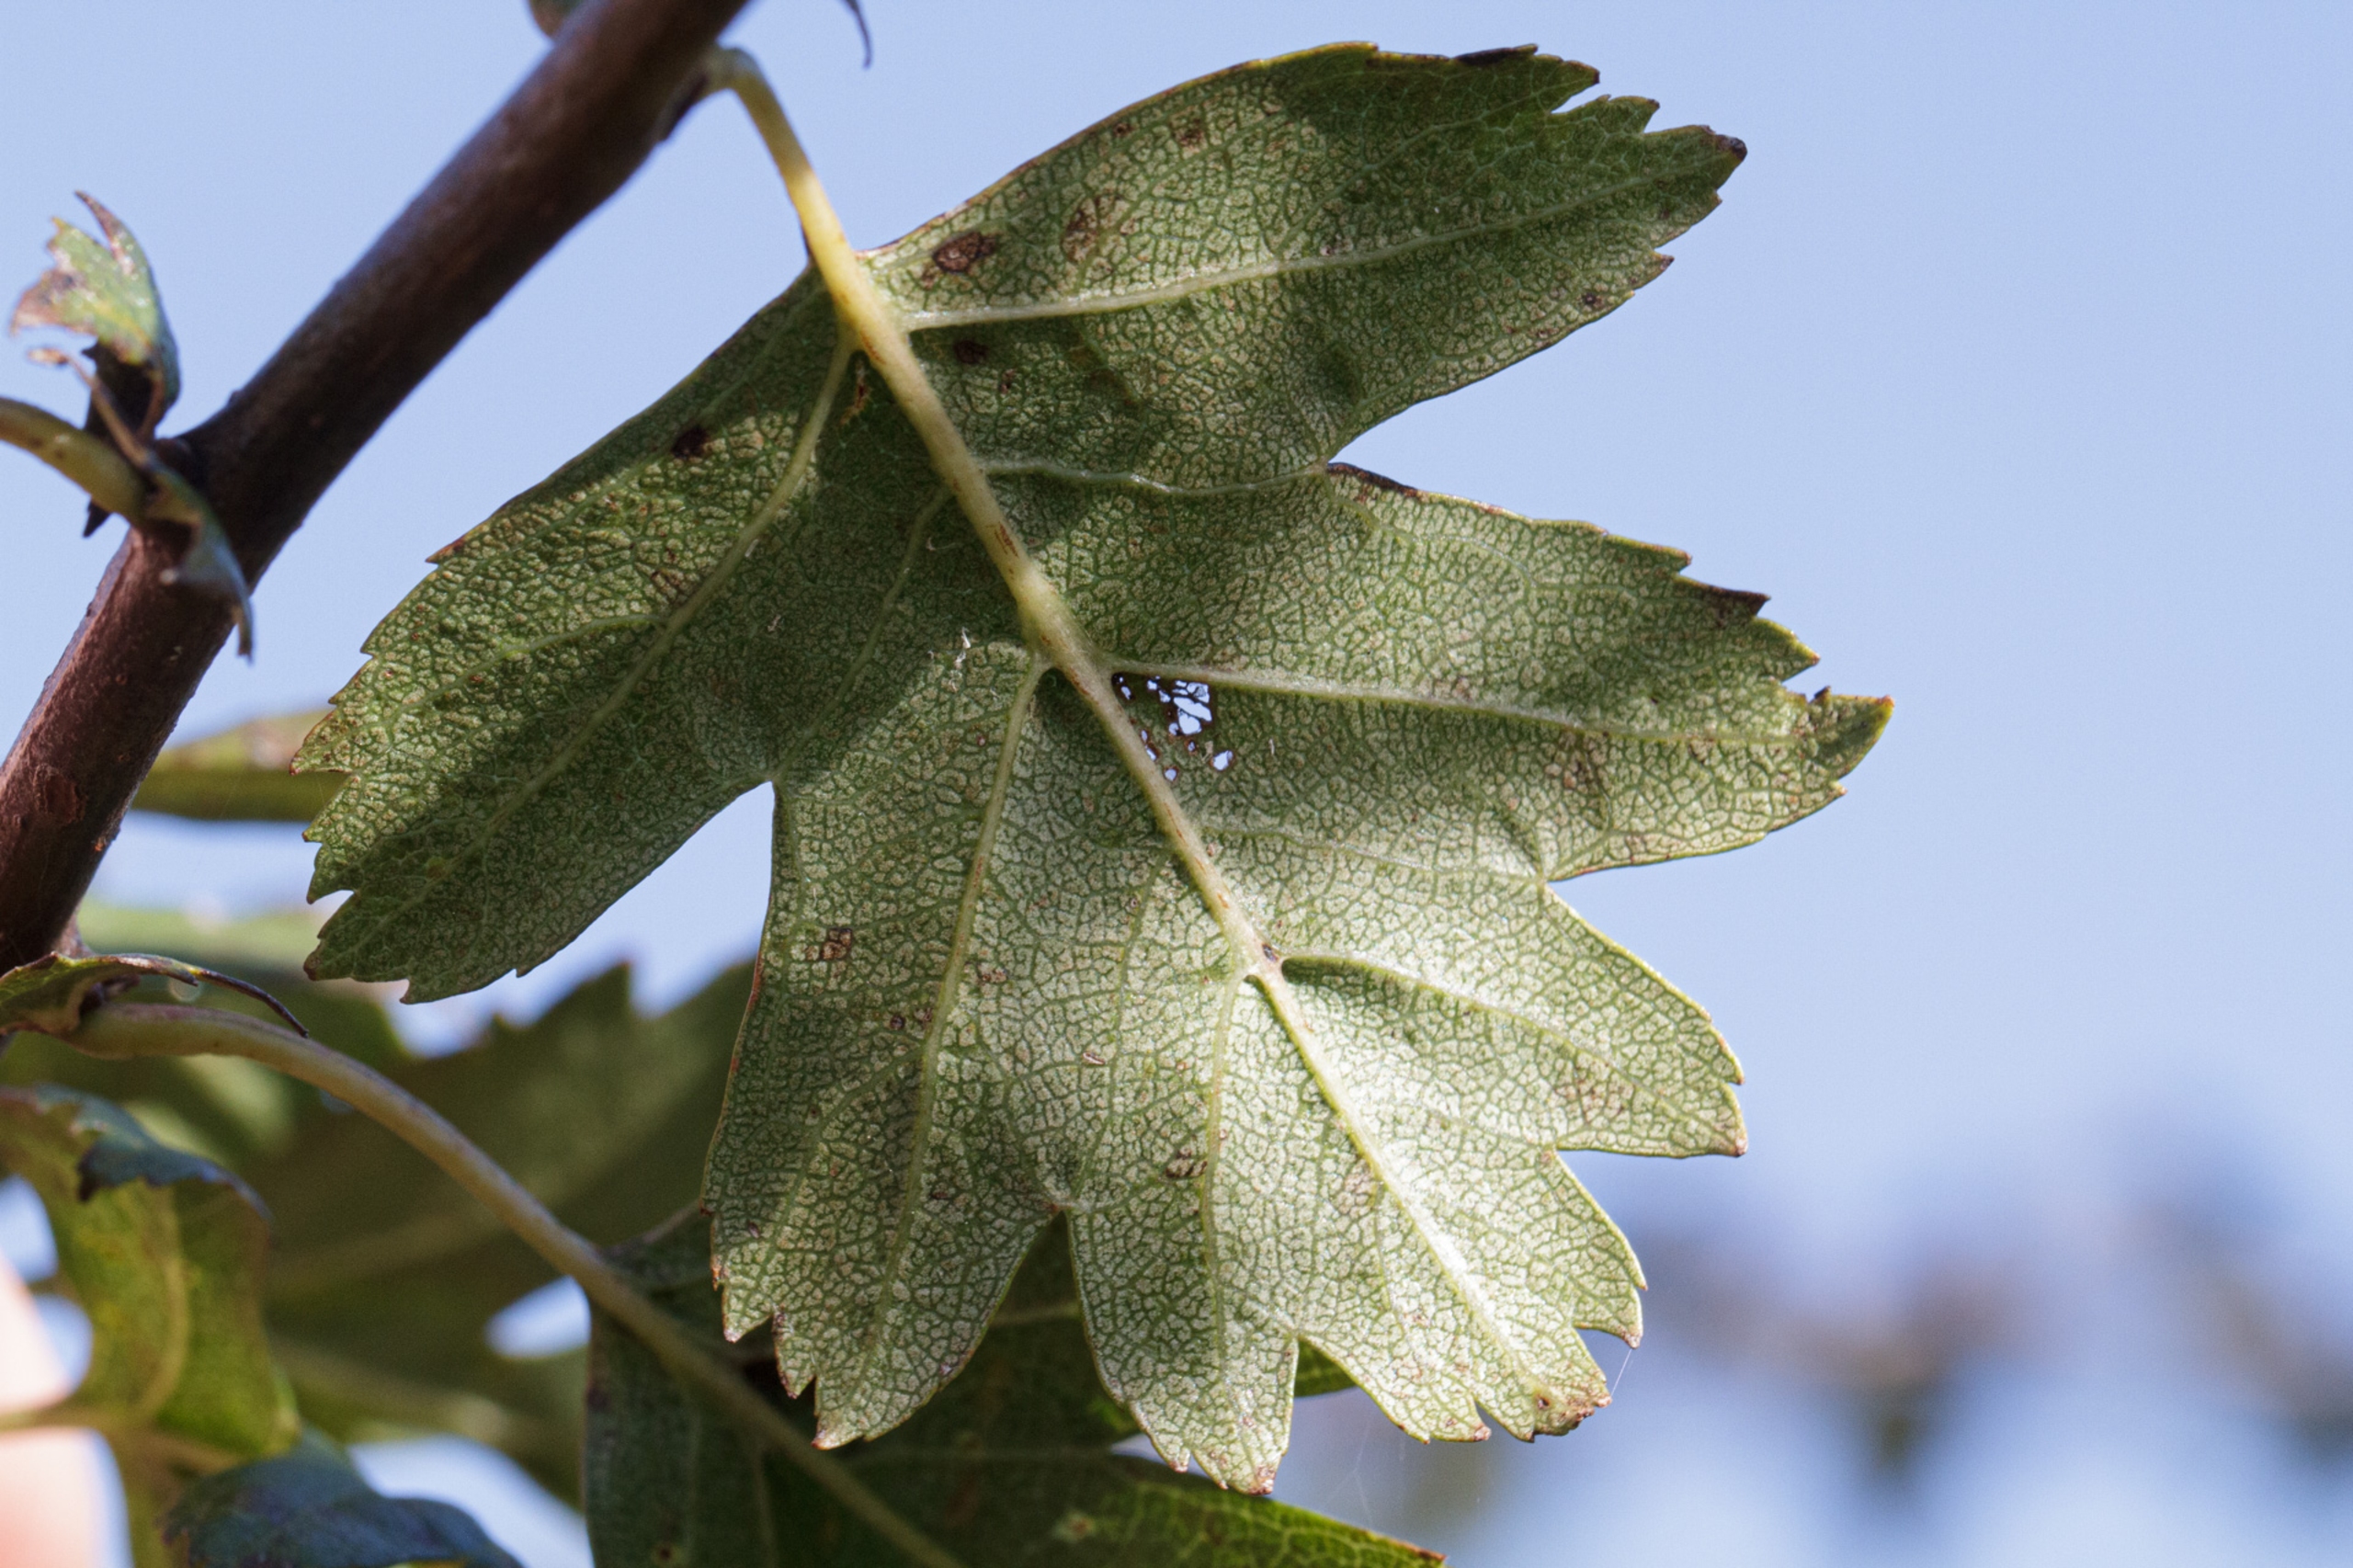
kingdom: Plantae
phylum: Tracheophyta
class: Magnoliopsida
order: Rosales
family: Rosaceae
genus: Crataegus
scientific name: Crataegus monogyna
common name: Engriflet hvidtjørn
